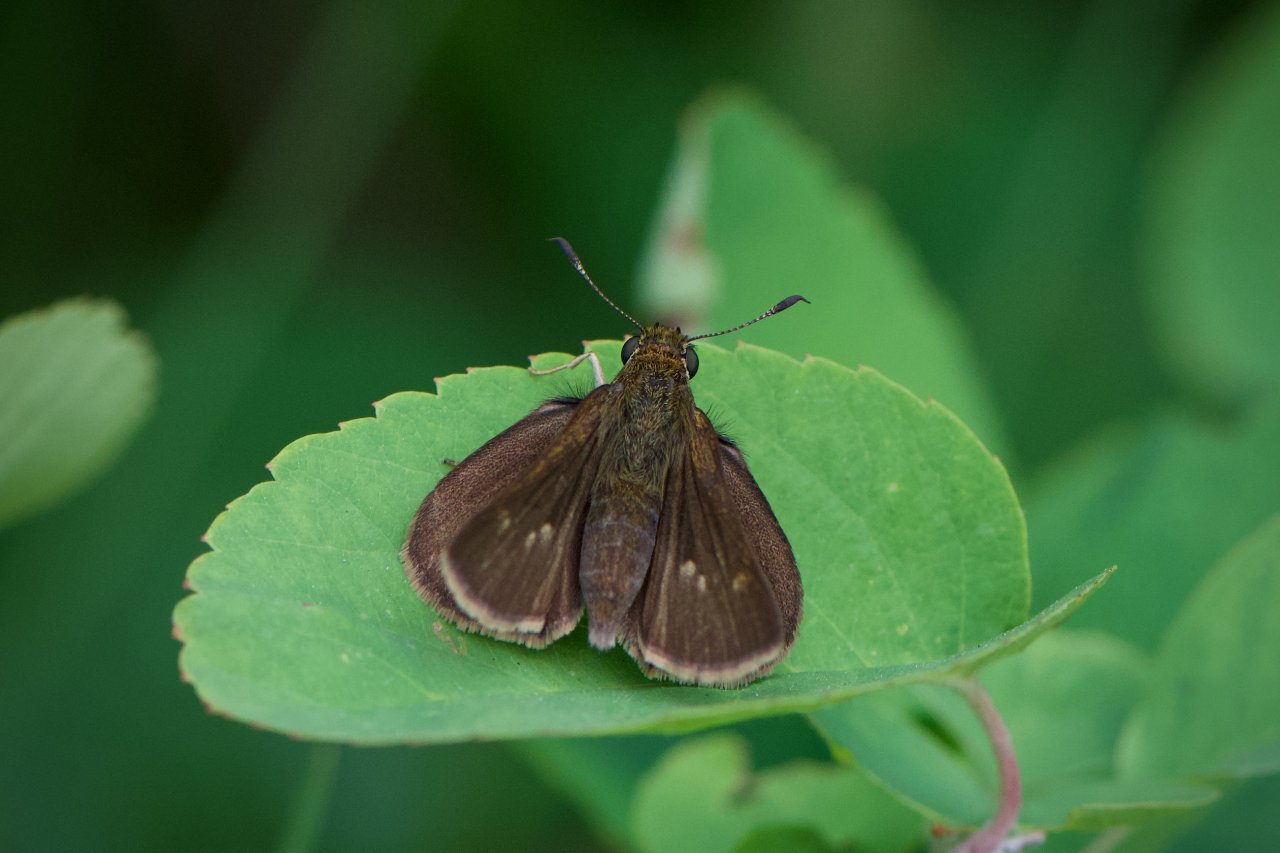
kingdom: Animalia
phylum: Arthropoda
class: Insecta
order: Lepidoptera
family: Hesperiidae
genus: Euphyes
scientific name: Euphyes vestris
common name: Dun Skipper
